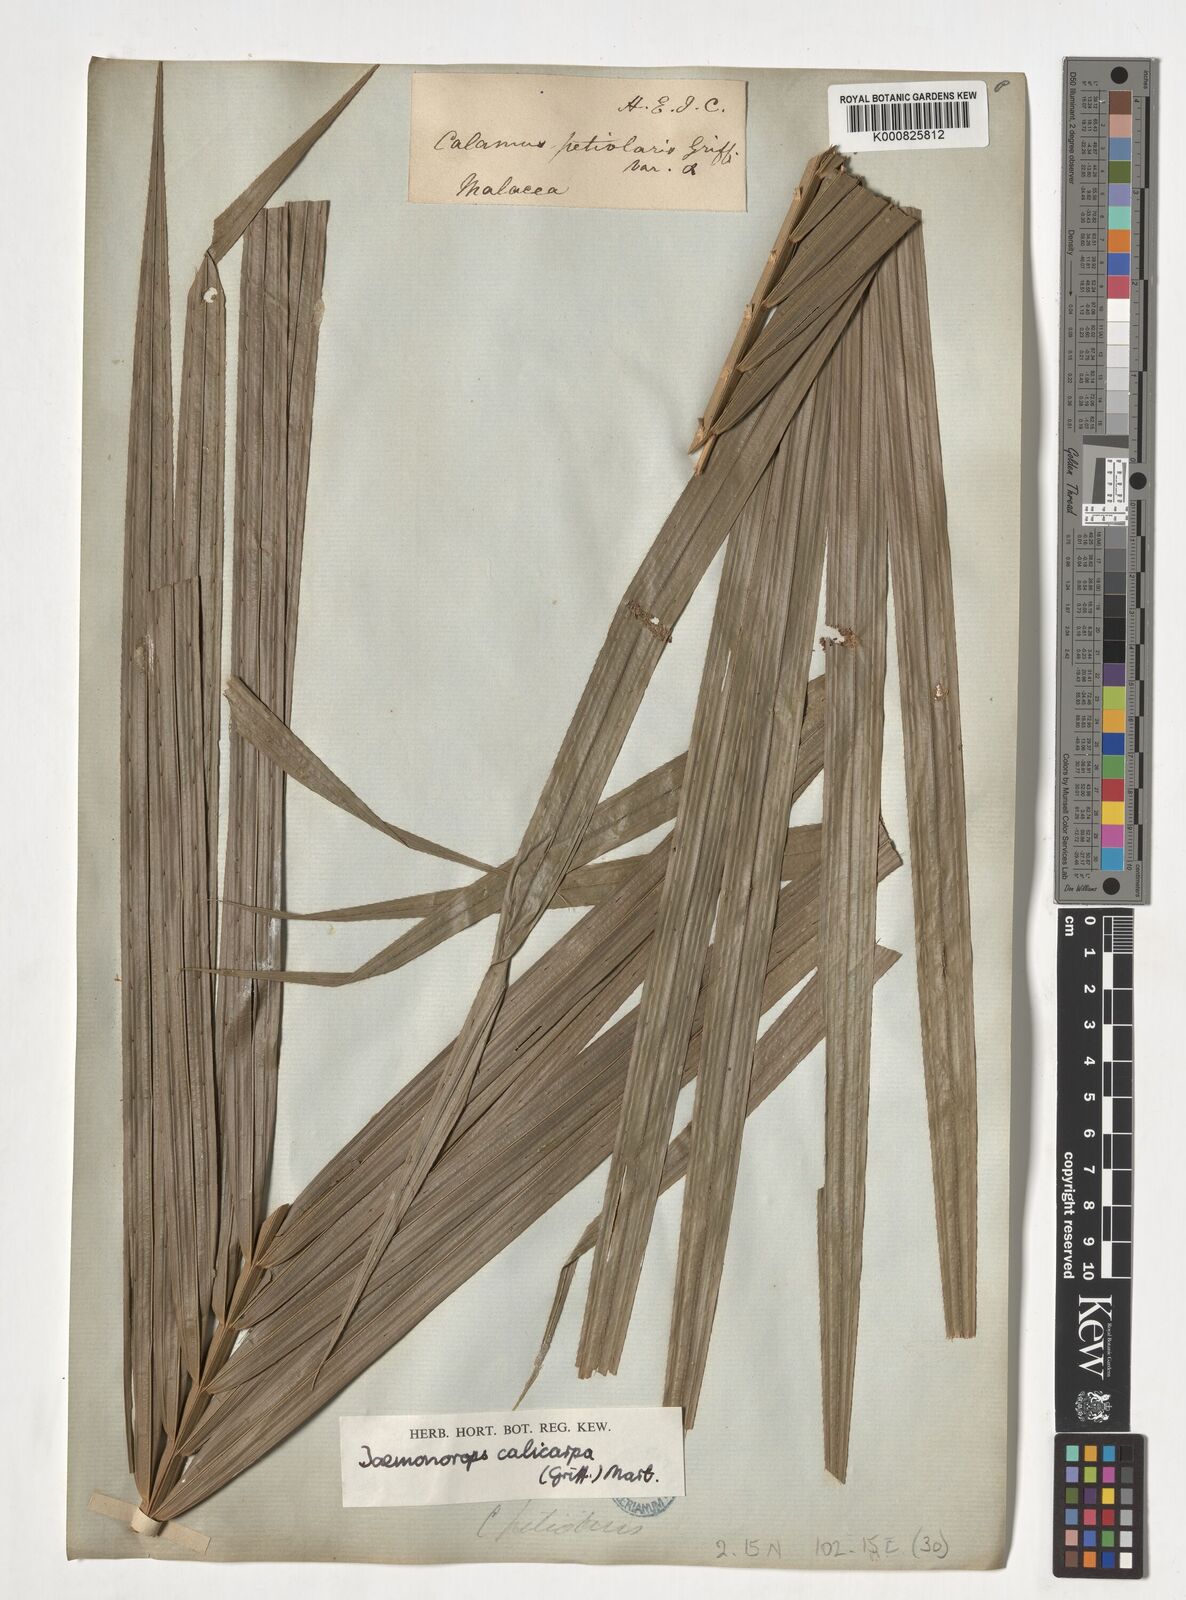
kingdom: Plantae
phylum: Tracheophyta
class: Liliopsida
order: Arecales
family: Arecaceae
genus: Calamus
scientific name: Calamus calicarpus
